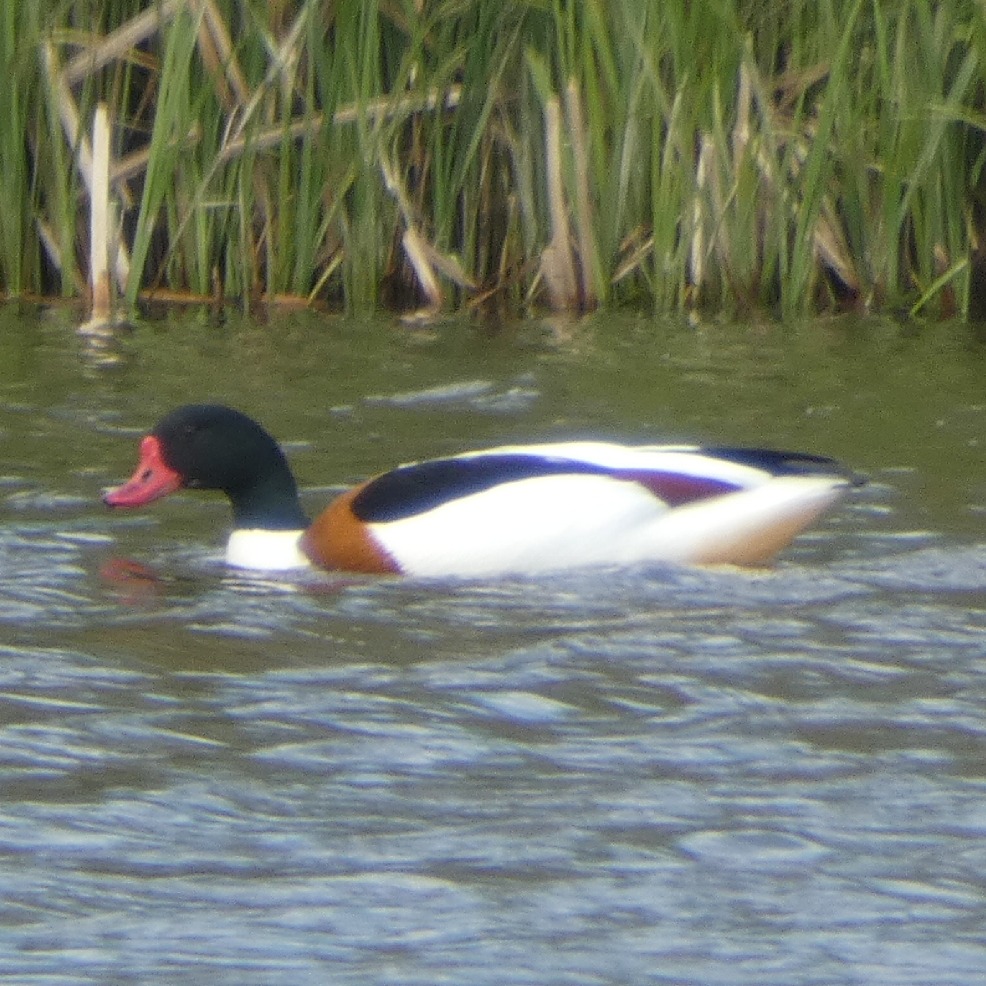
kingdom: Animalia
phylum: Chordata
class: Aves
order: Anseriformes
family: Anatidae
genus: Tadorna
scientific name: Tadorna tadorna
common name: Gravand
